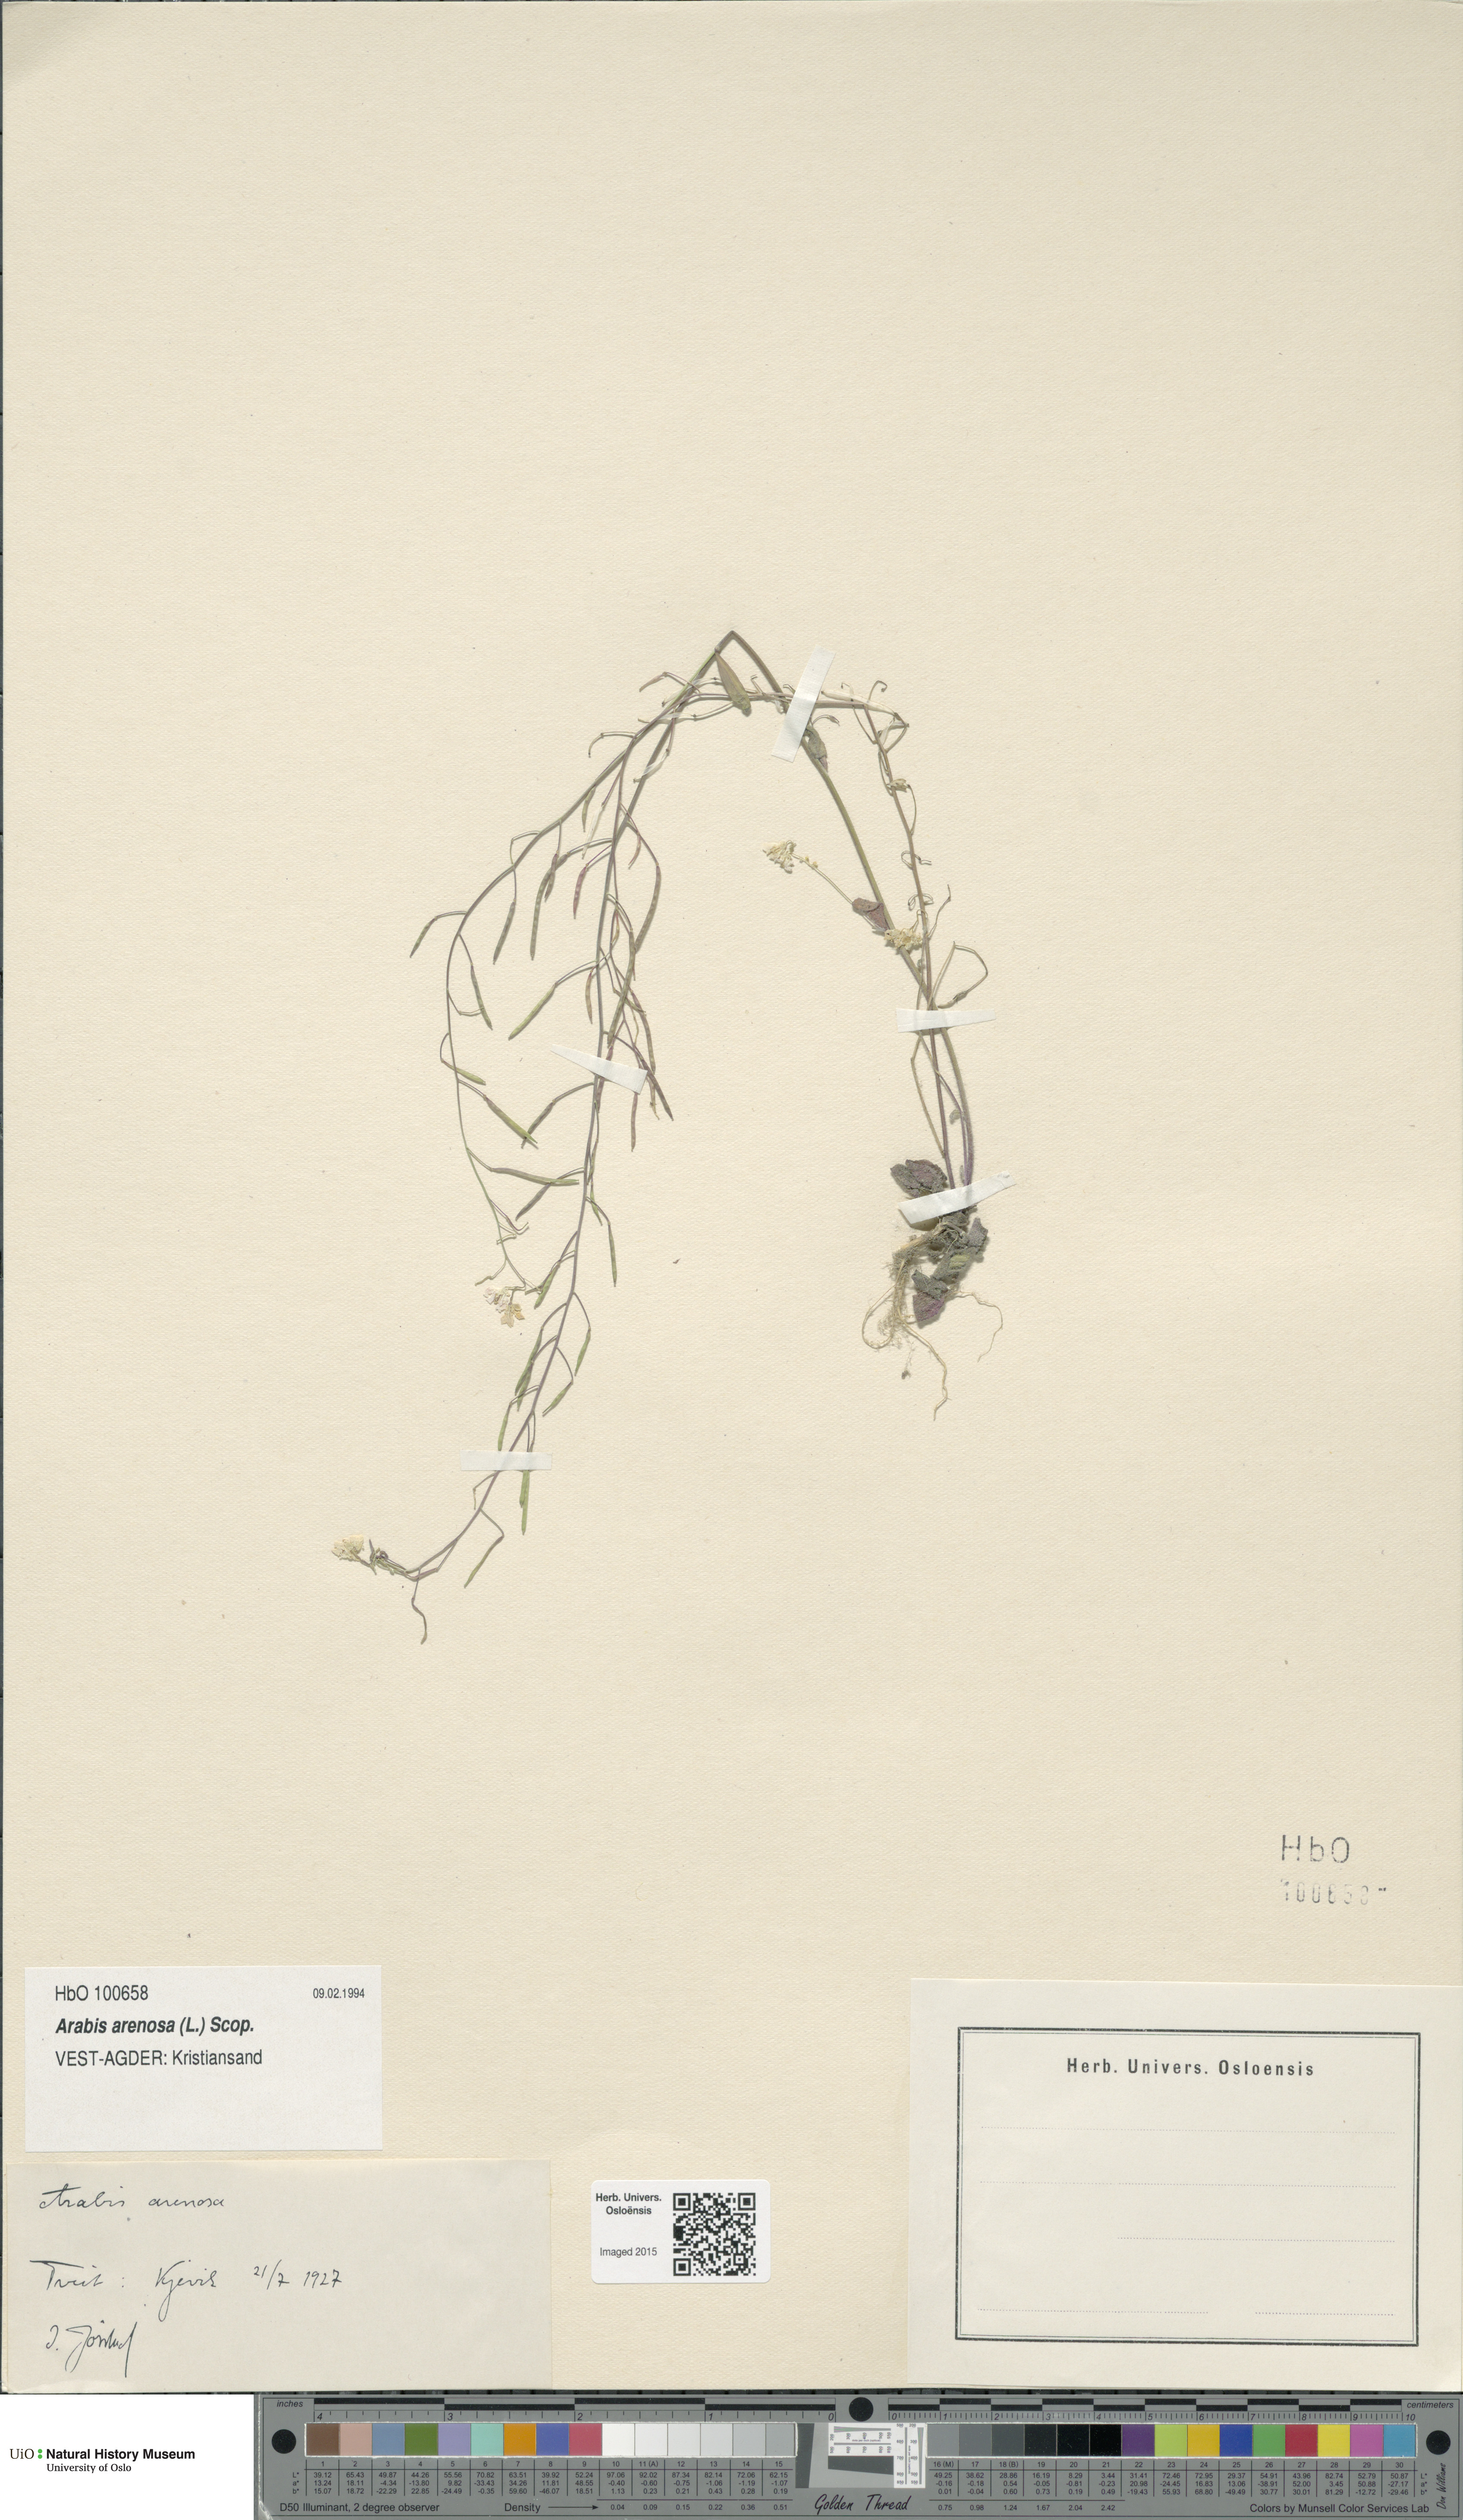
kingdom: Plantae
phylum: Tracheophyta
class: Magnoliopsida
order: Brassicales
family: Brassicaceae
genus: Arabidopsis
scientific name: Arabidopsis arenosa
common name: Sand rock-cress
